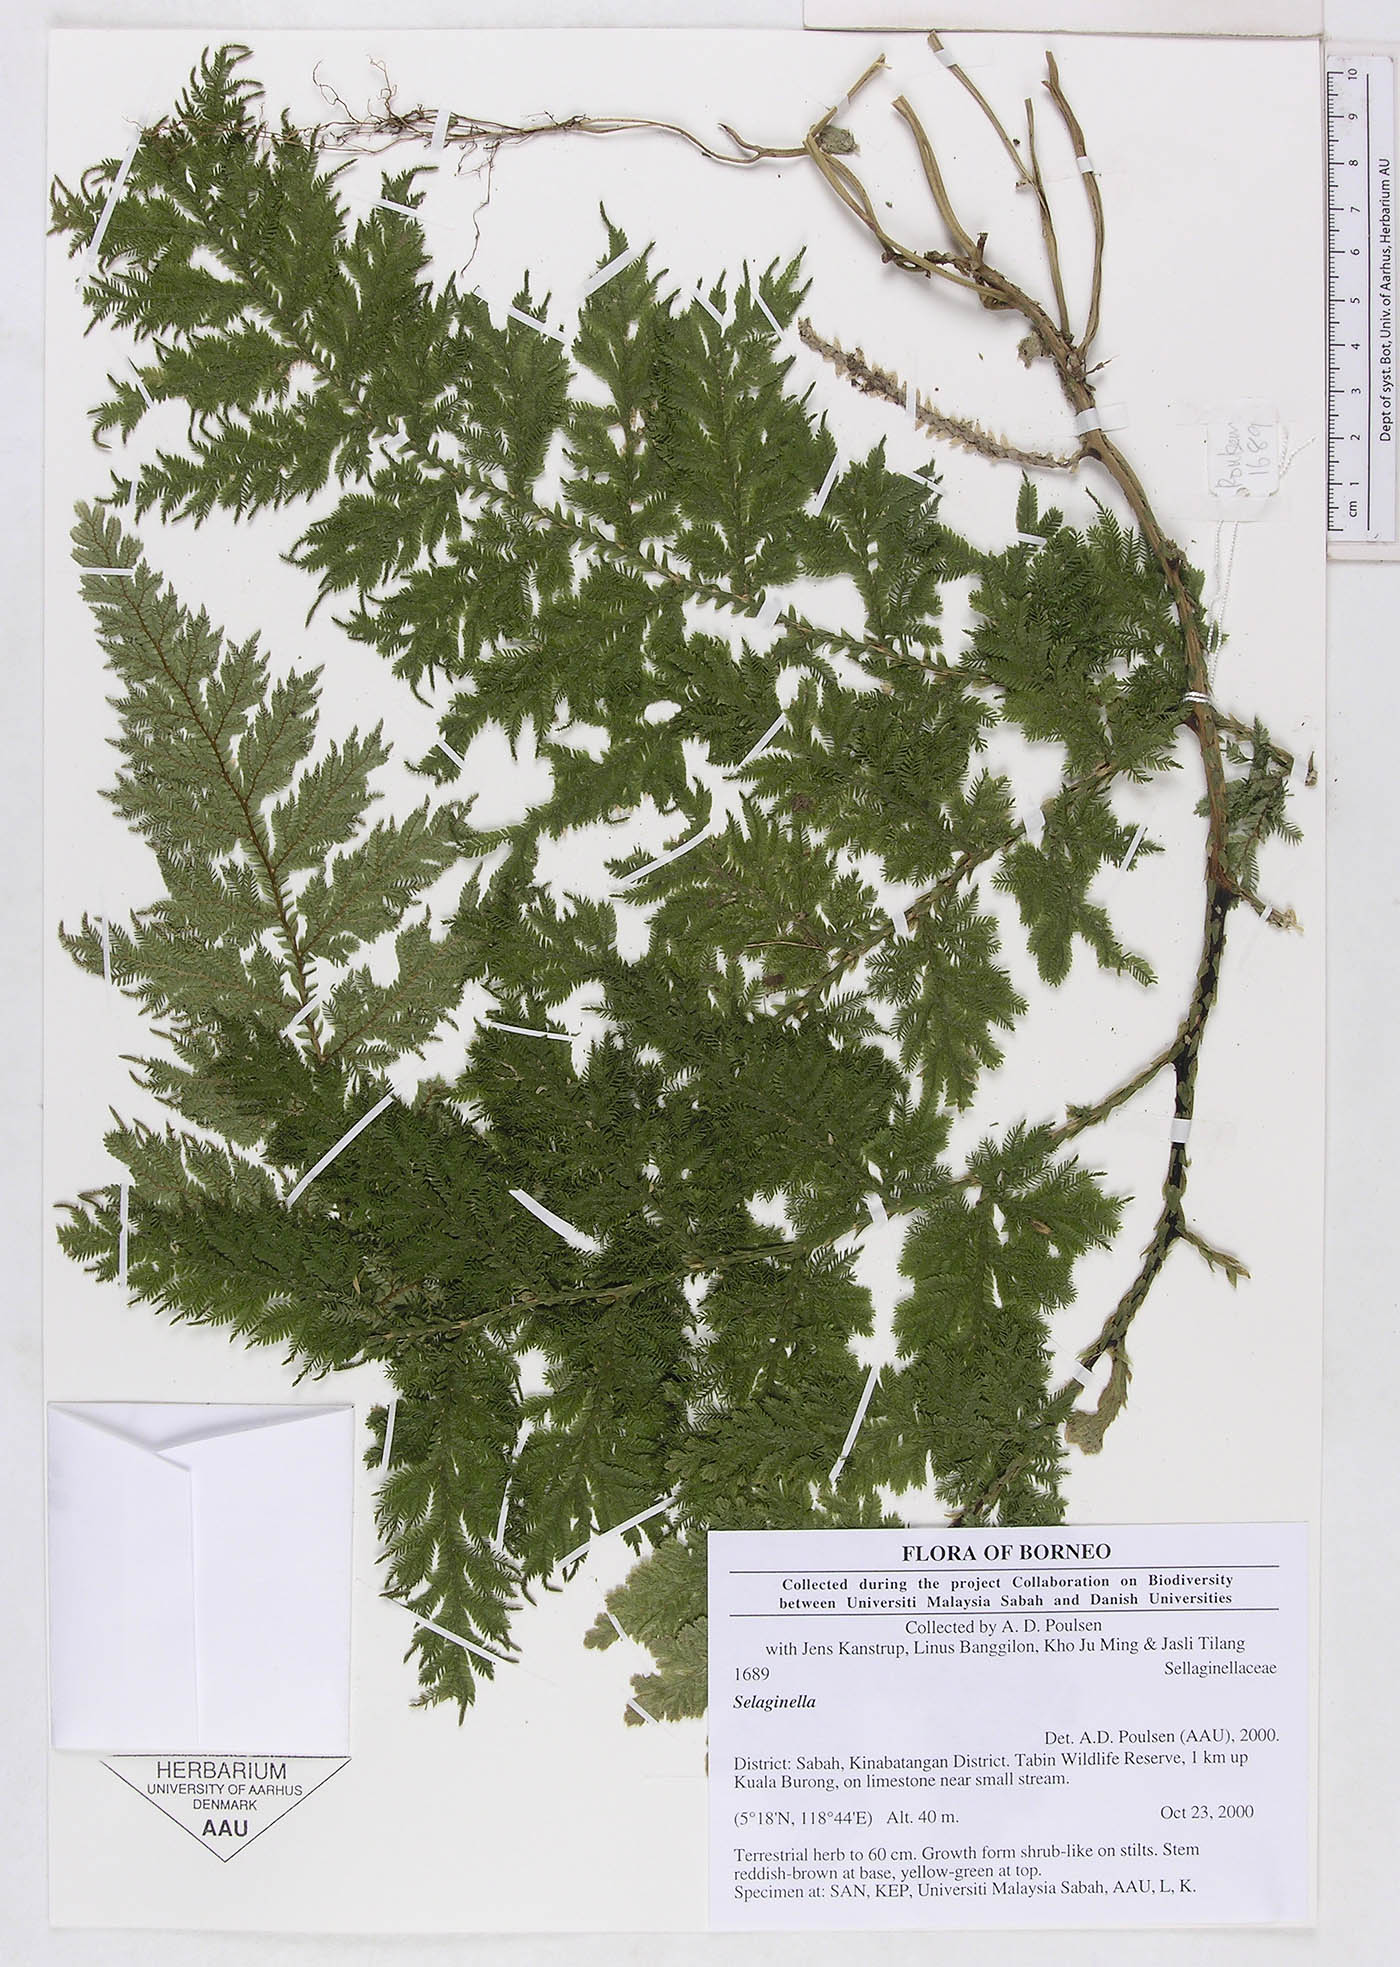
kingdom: Plantae
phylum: Tracheophyta
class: Lycopodiopsida
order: Selaginellales
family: Selaginellaceae
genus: Selaginella
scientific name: Selaginella
